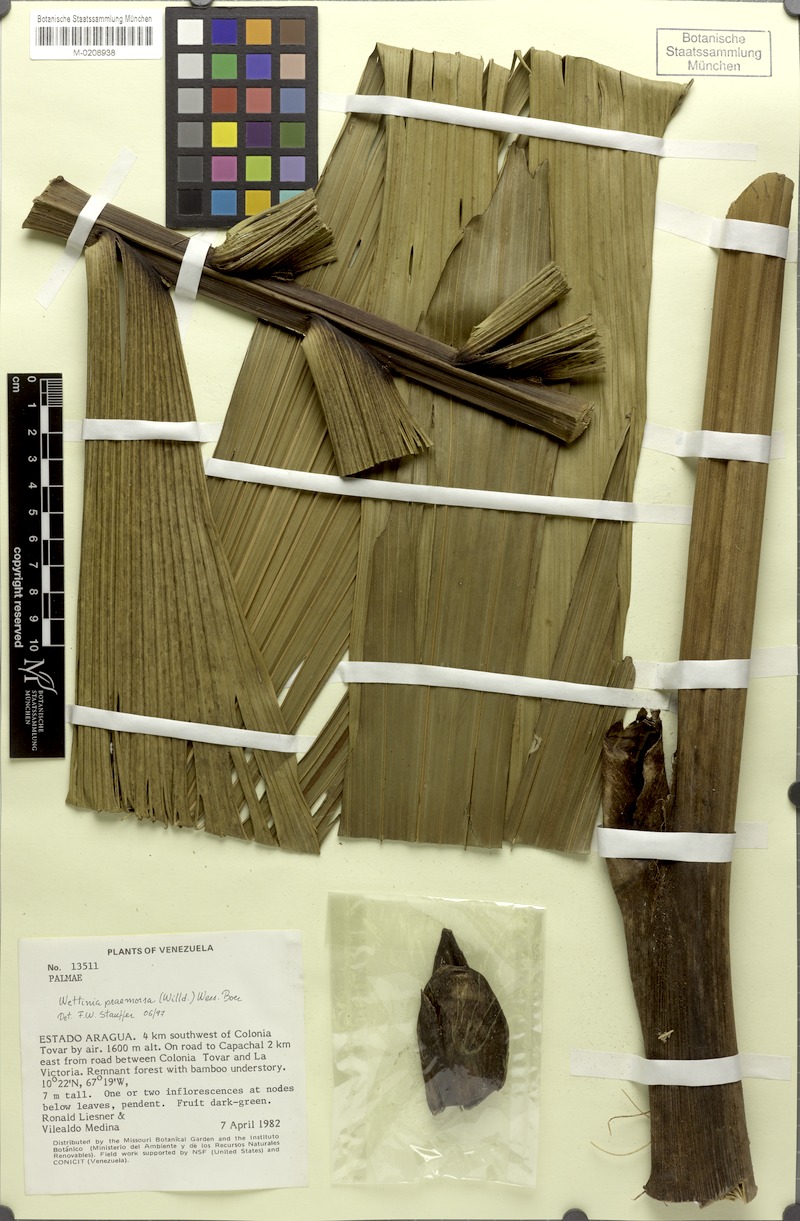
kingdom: Plantae
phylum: Tracheophyta
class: Liliopsida
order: Arecales
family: Arecaceae
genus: Wettinia
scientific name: Wettinia praemorsa
